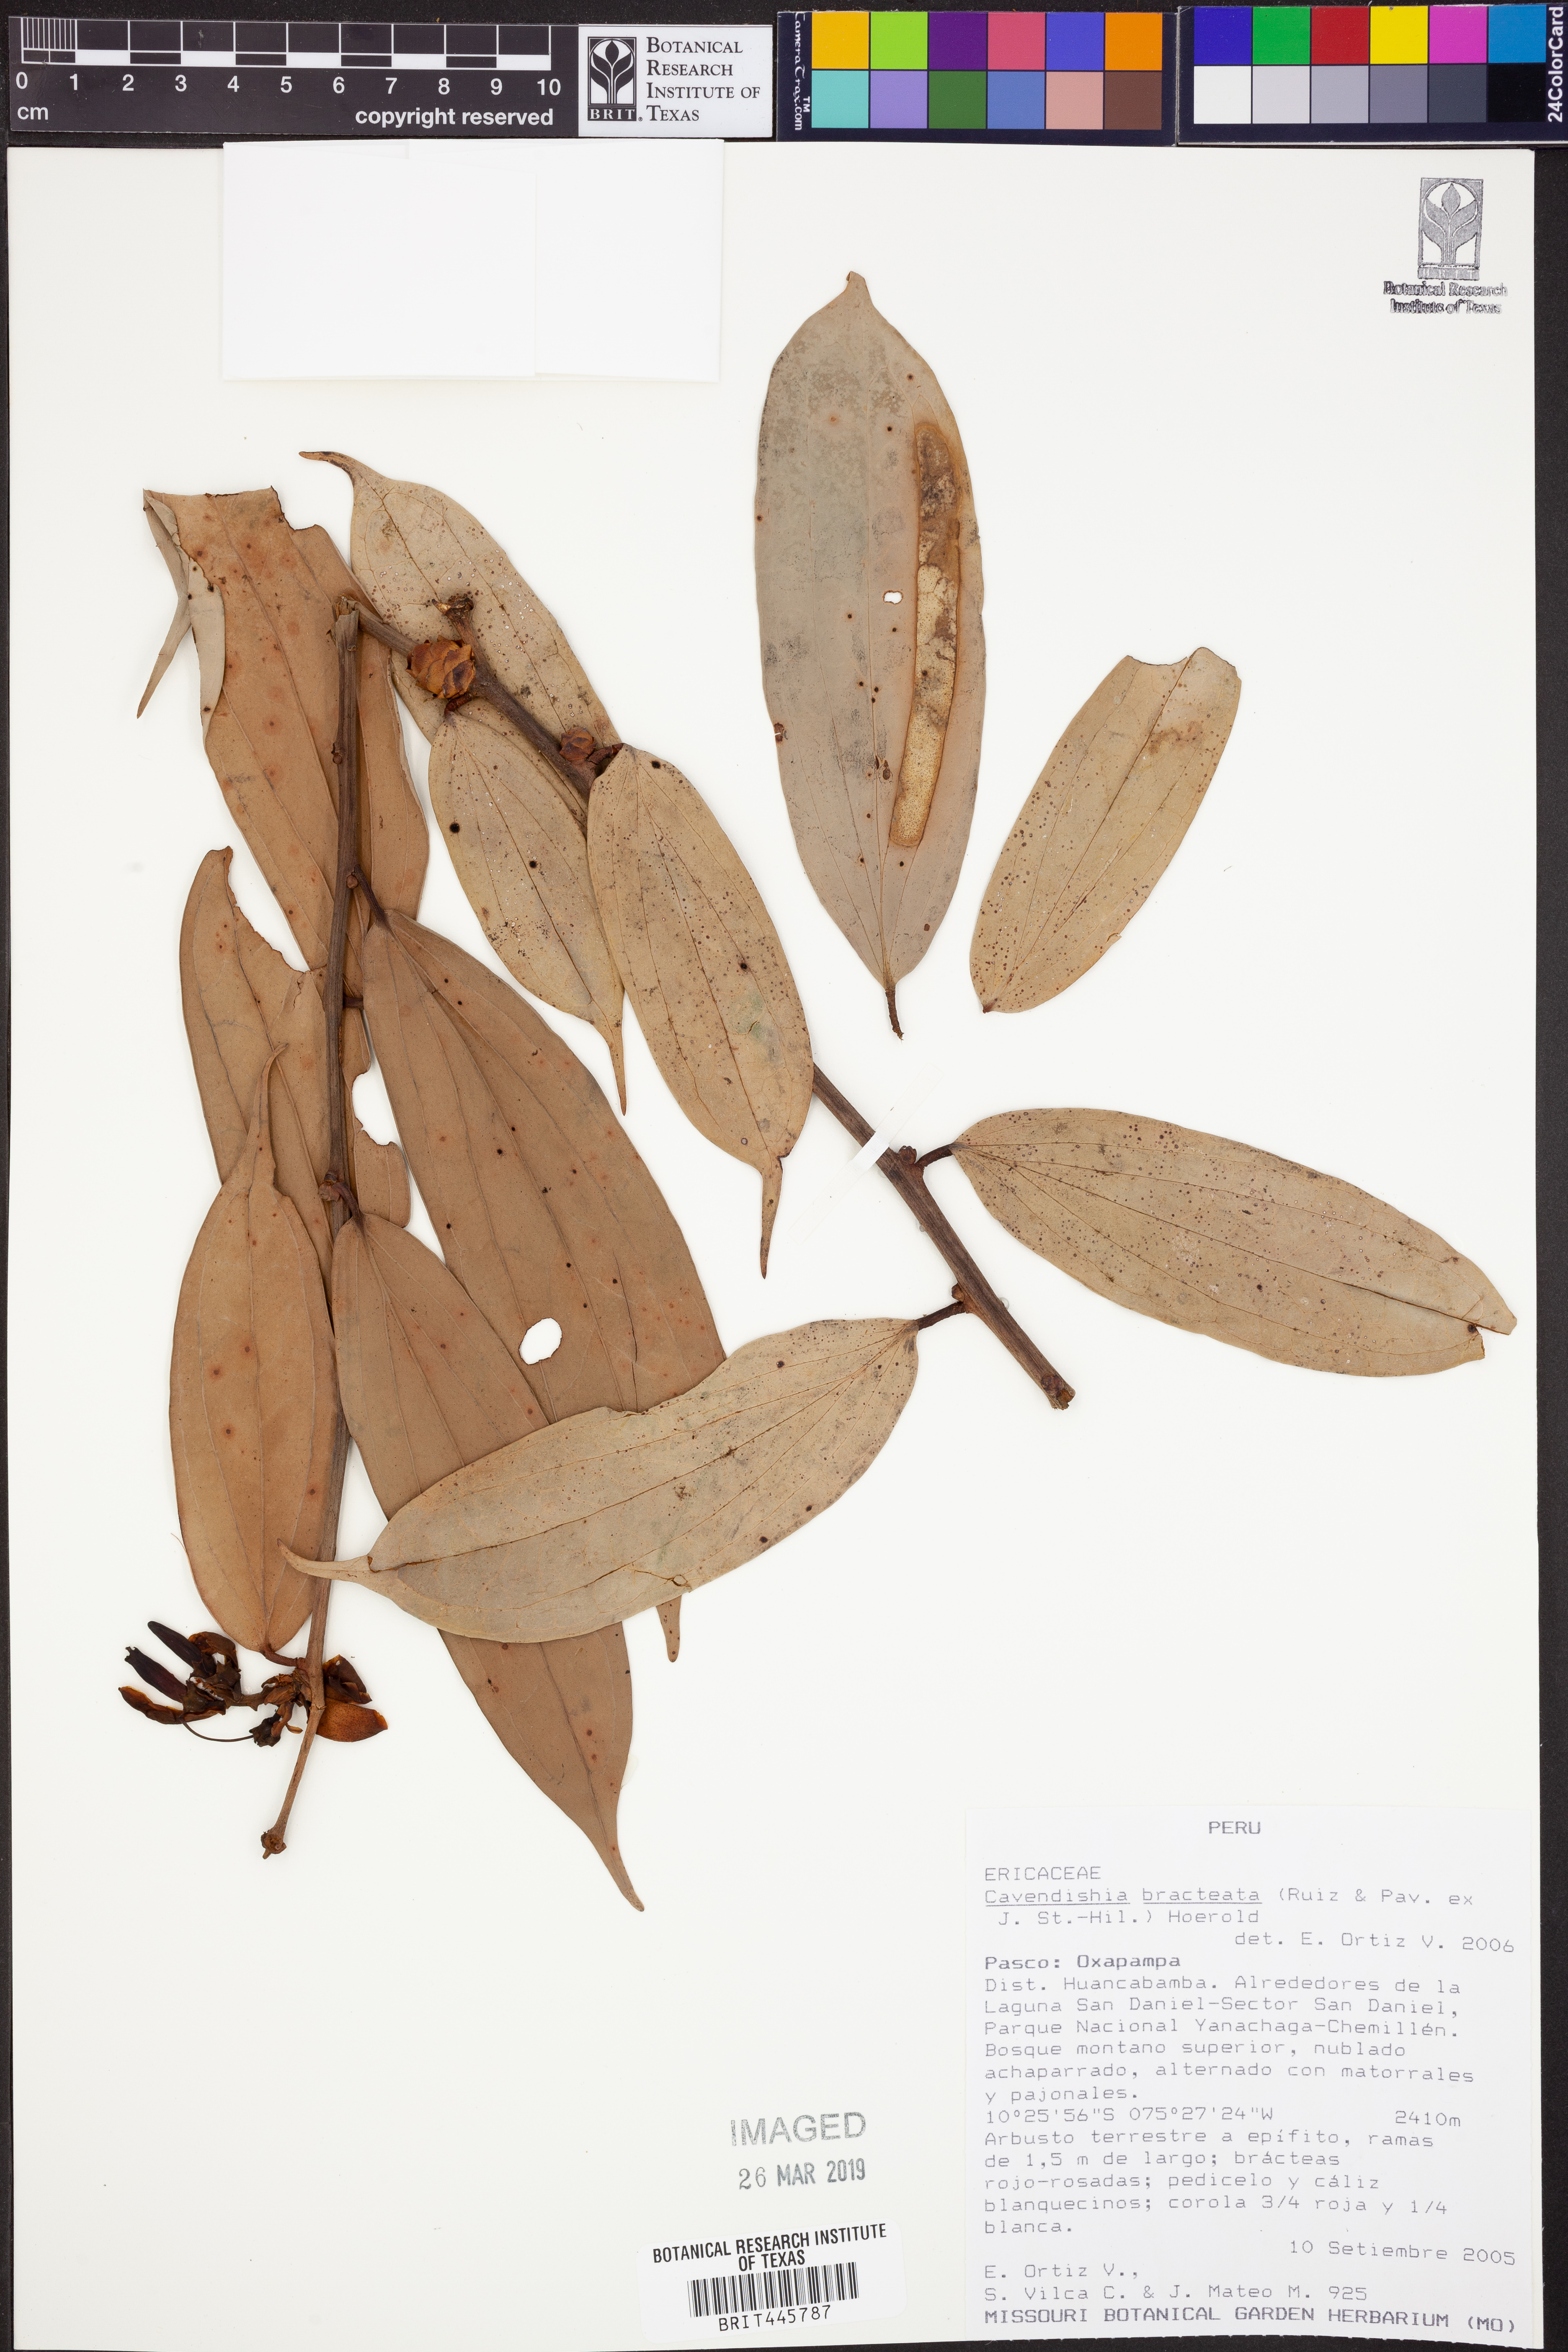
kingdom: Plantae
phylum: Tracheophyta
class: Magnoliopsida
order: Ericales
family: Ericaceae
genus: Cavendishia
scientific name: Cavendishia bracteata
